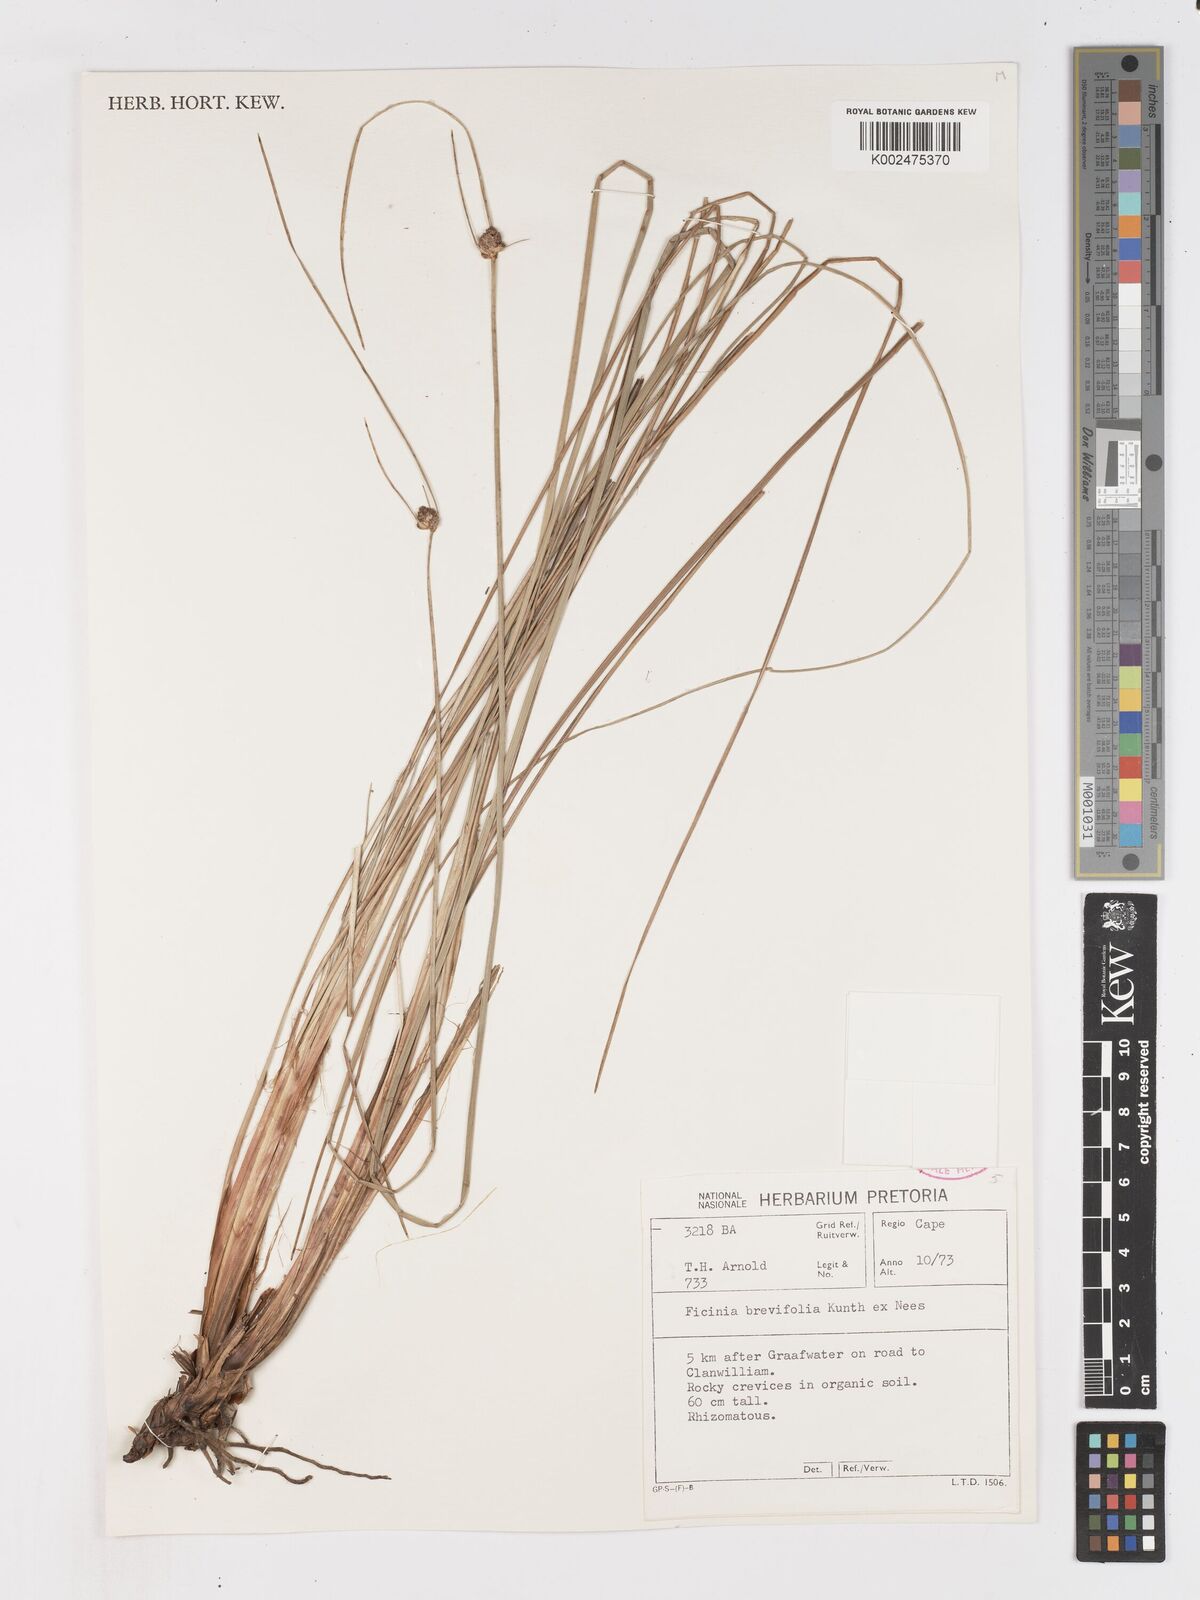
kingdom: Plantae
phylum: Tracheophyta
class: Liliopsida
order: Poales
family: Cyperaceae
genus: Ficinia
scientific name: Ficinia brevifolia
